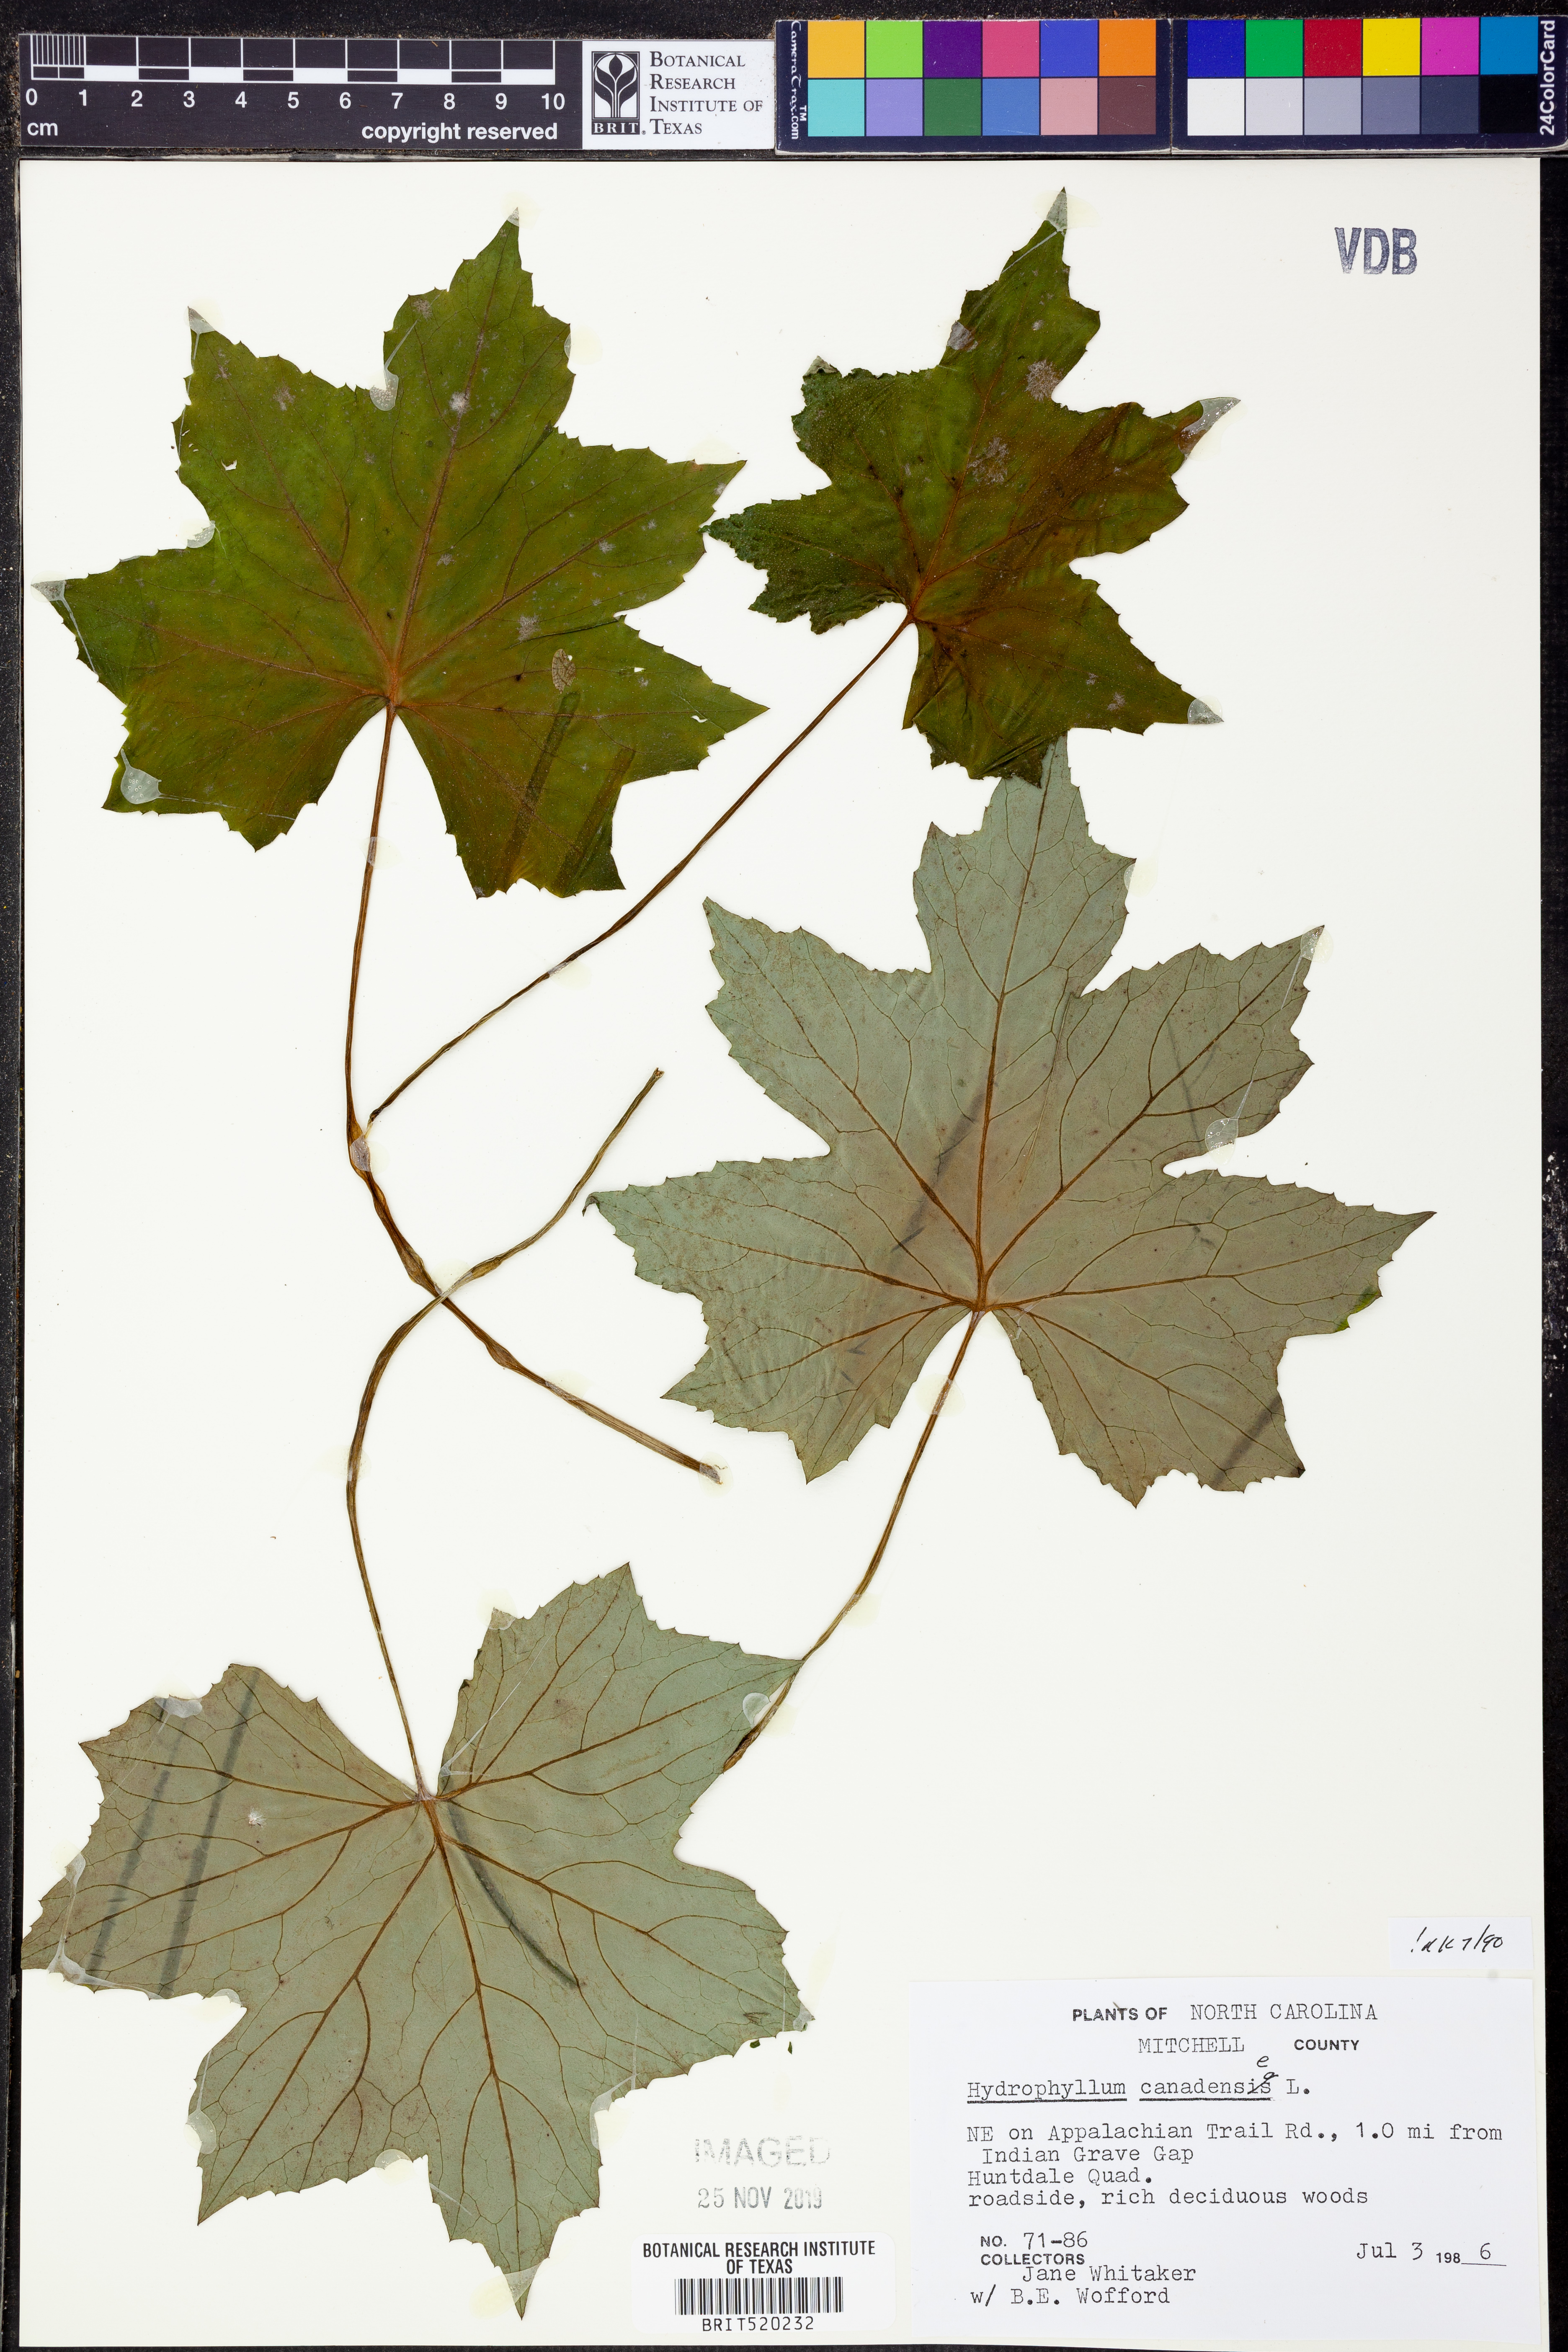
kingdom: Plantae
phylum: Tracheophyta
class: Magnoliopsida
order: Boraginales
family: Hydrophyllaceae
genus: Hydrophyllum
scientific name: Hydrophyllum canadense
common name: Canada waterleaf
